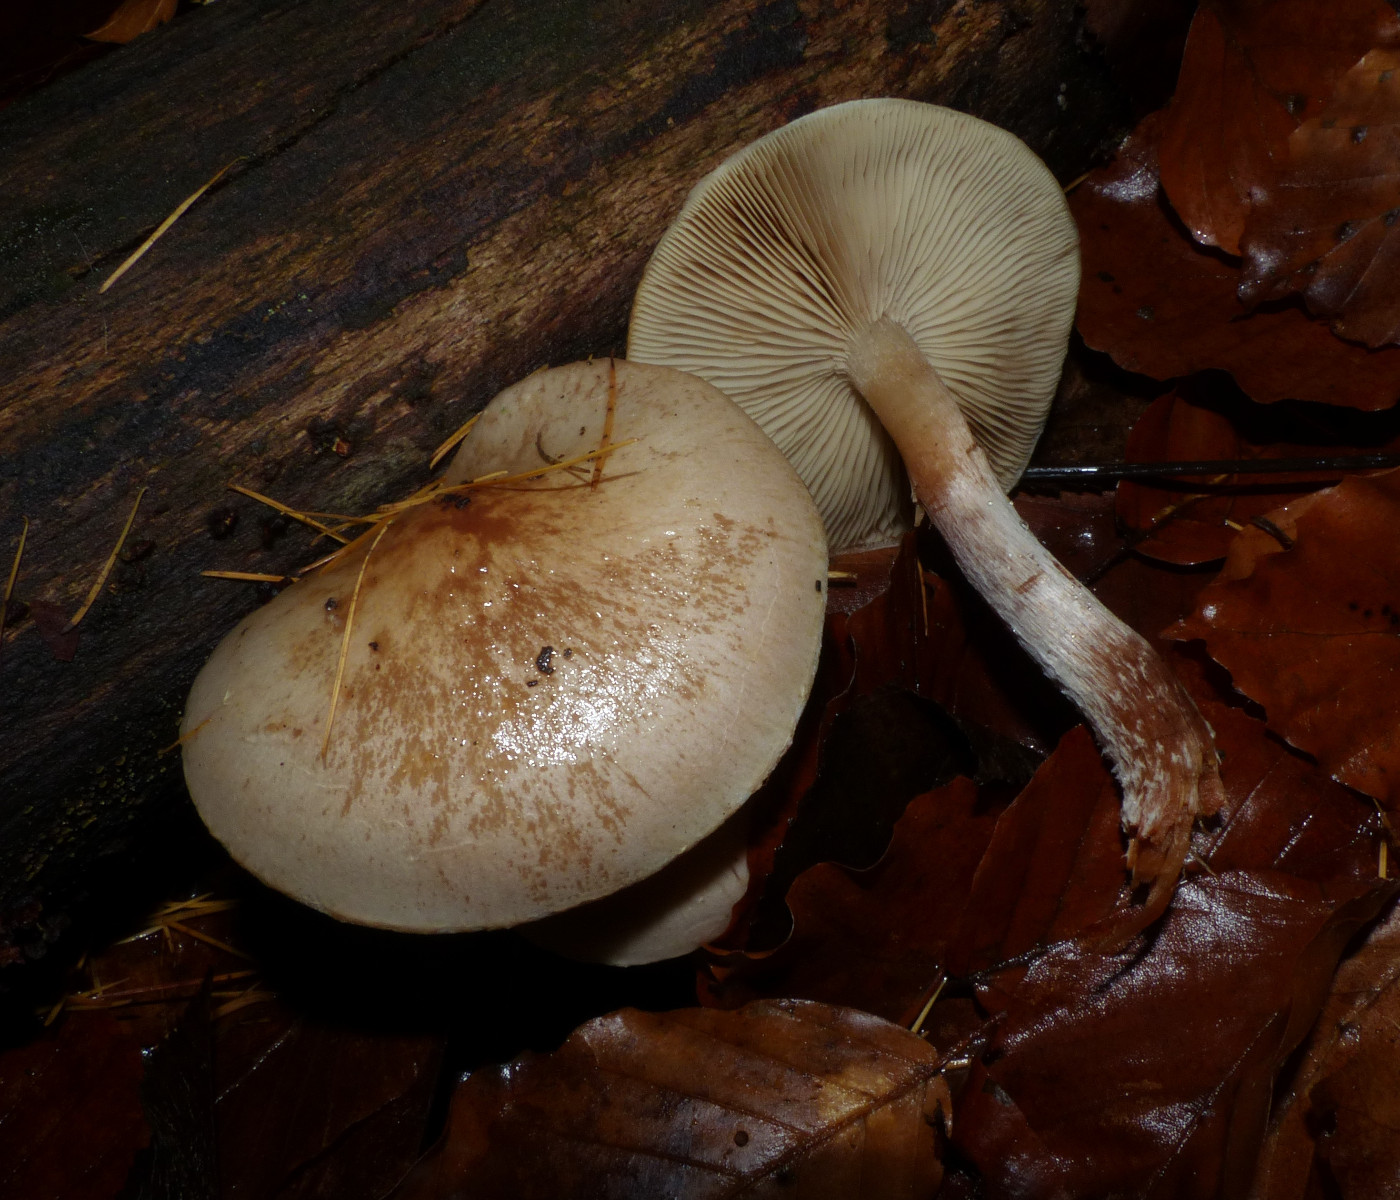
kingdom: Fungi
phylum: Basidiomycota
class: Agaricomycetes
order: Agaricales
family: Strophariaceae
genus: Pholiota
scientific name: Pholiota lenta
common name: løv-skælhat
